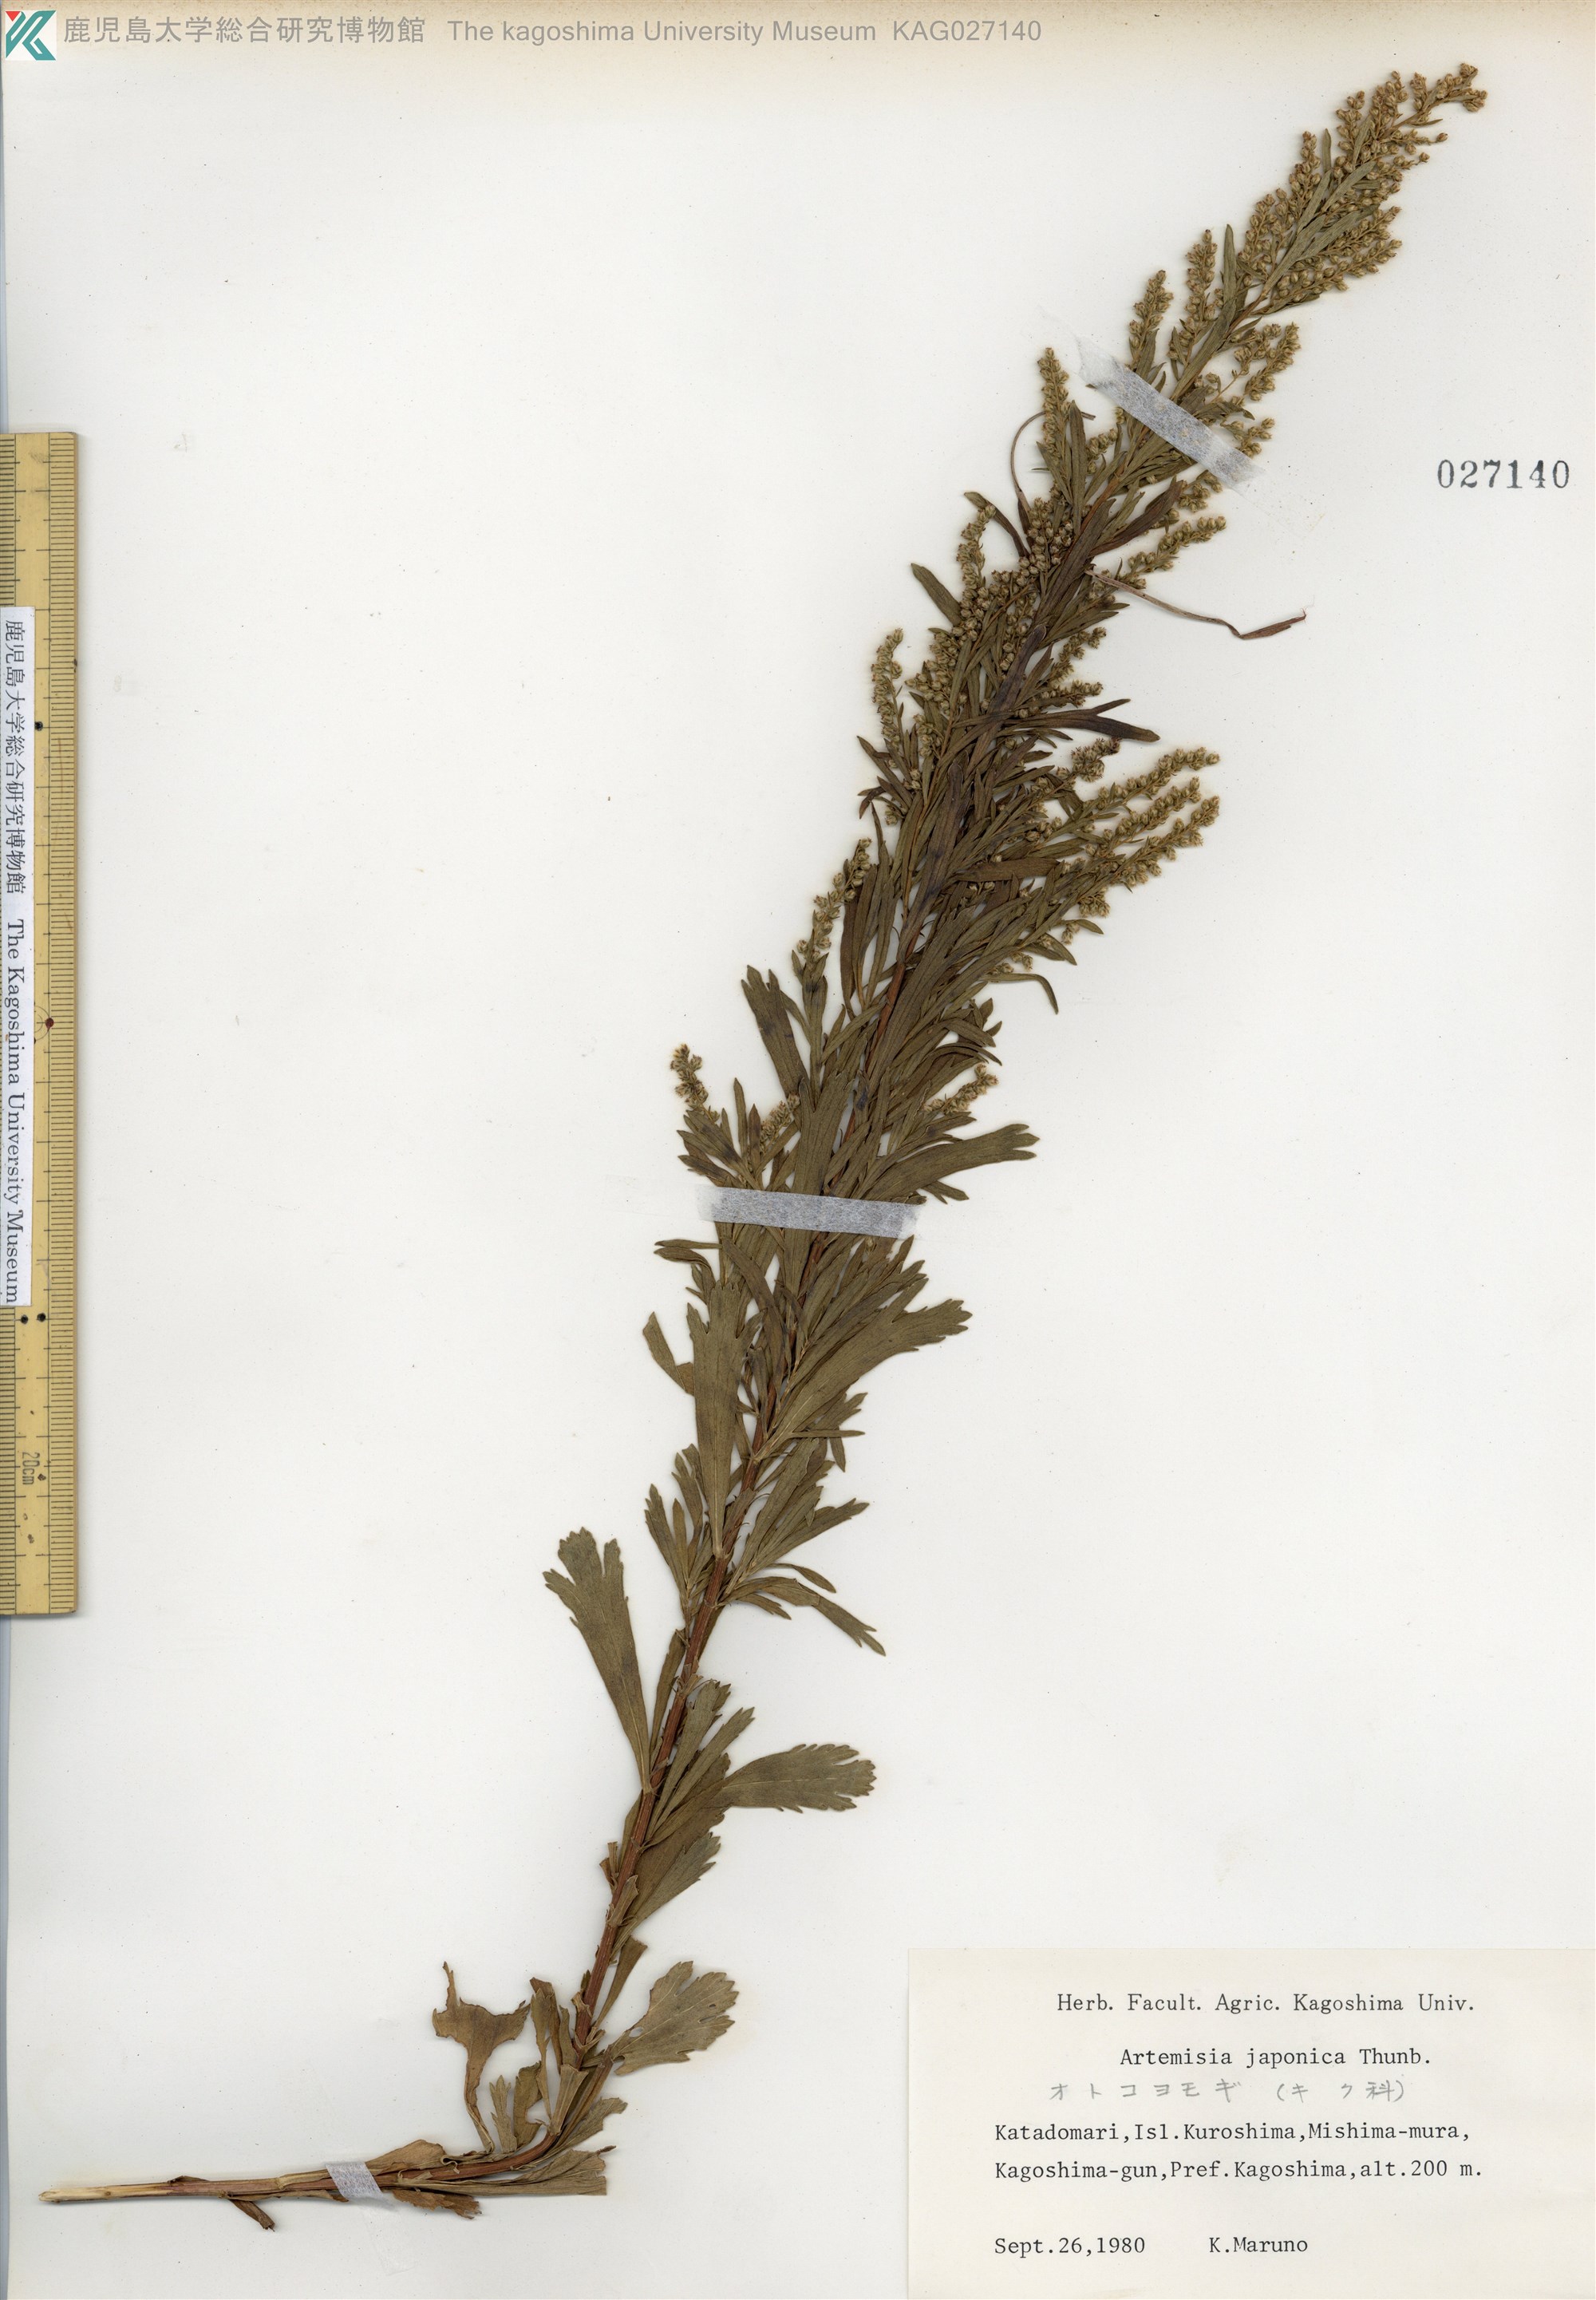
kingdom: Plantae
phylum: Tracheophyta
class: Magnoliopsida
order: Asterales
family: Asteraceae
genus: Artemisia
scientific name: Artemisia japonica
